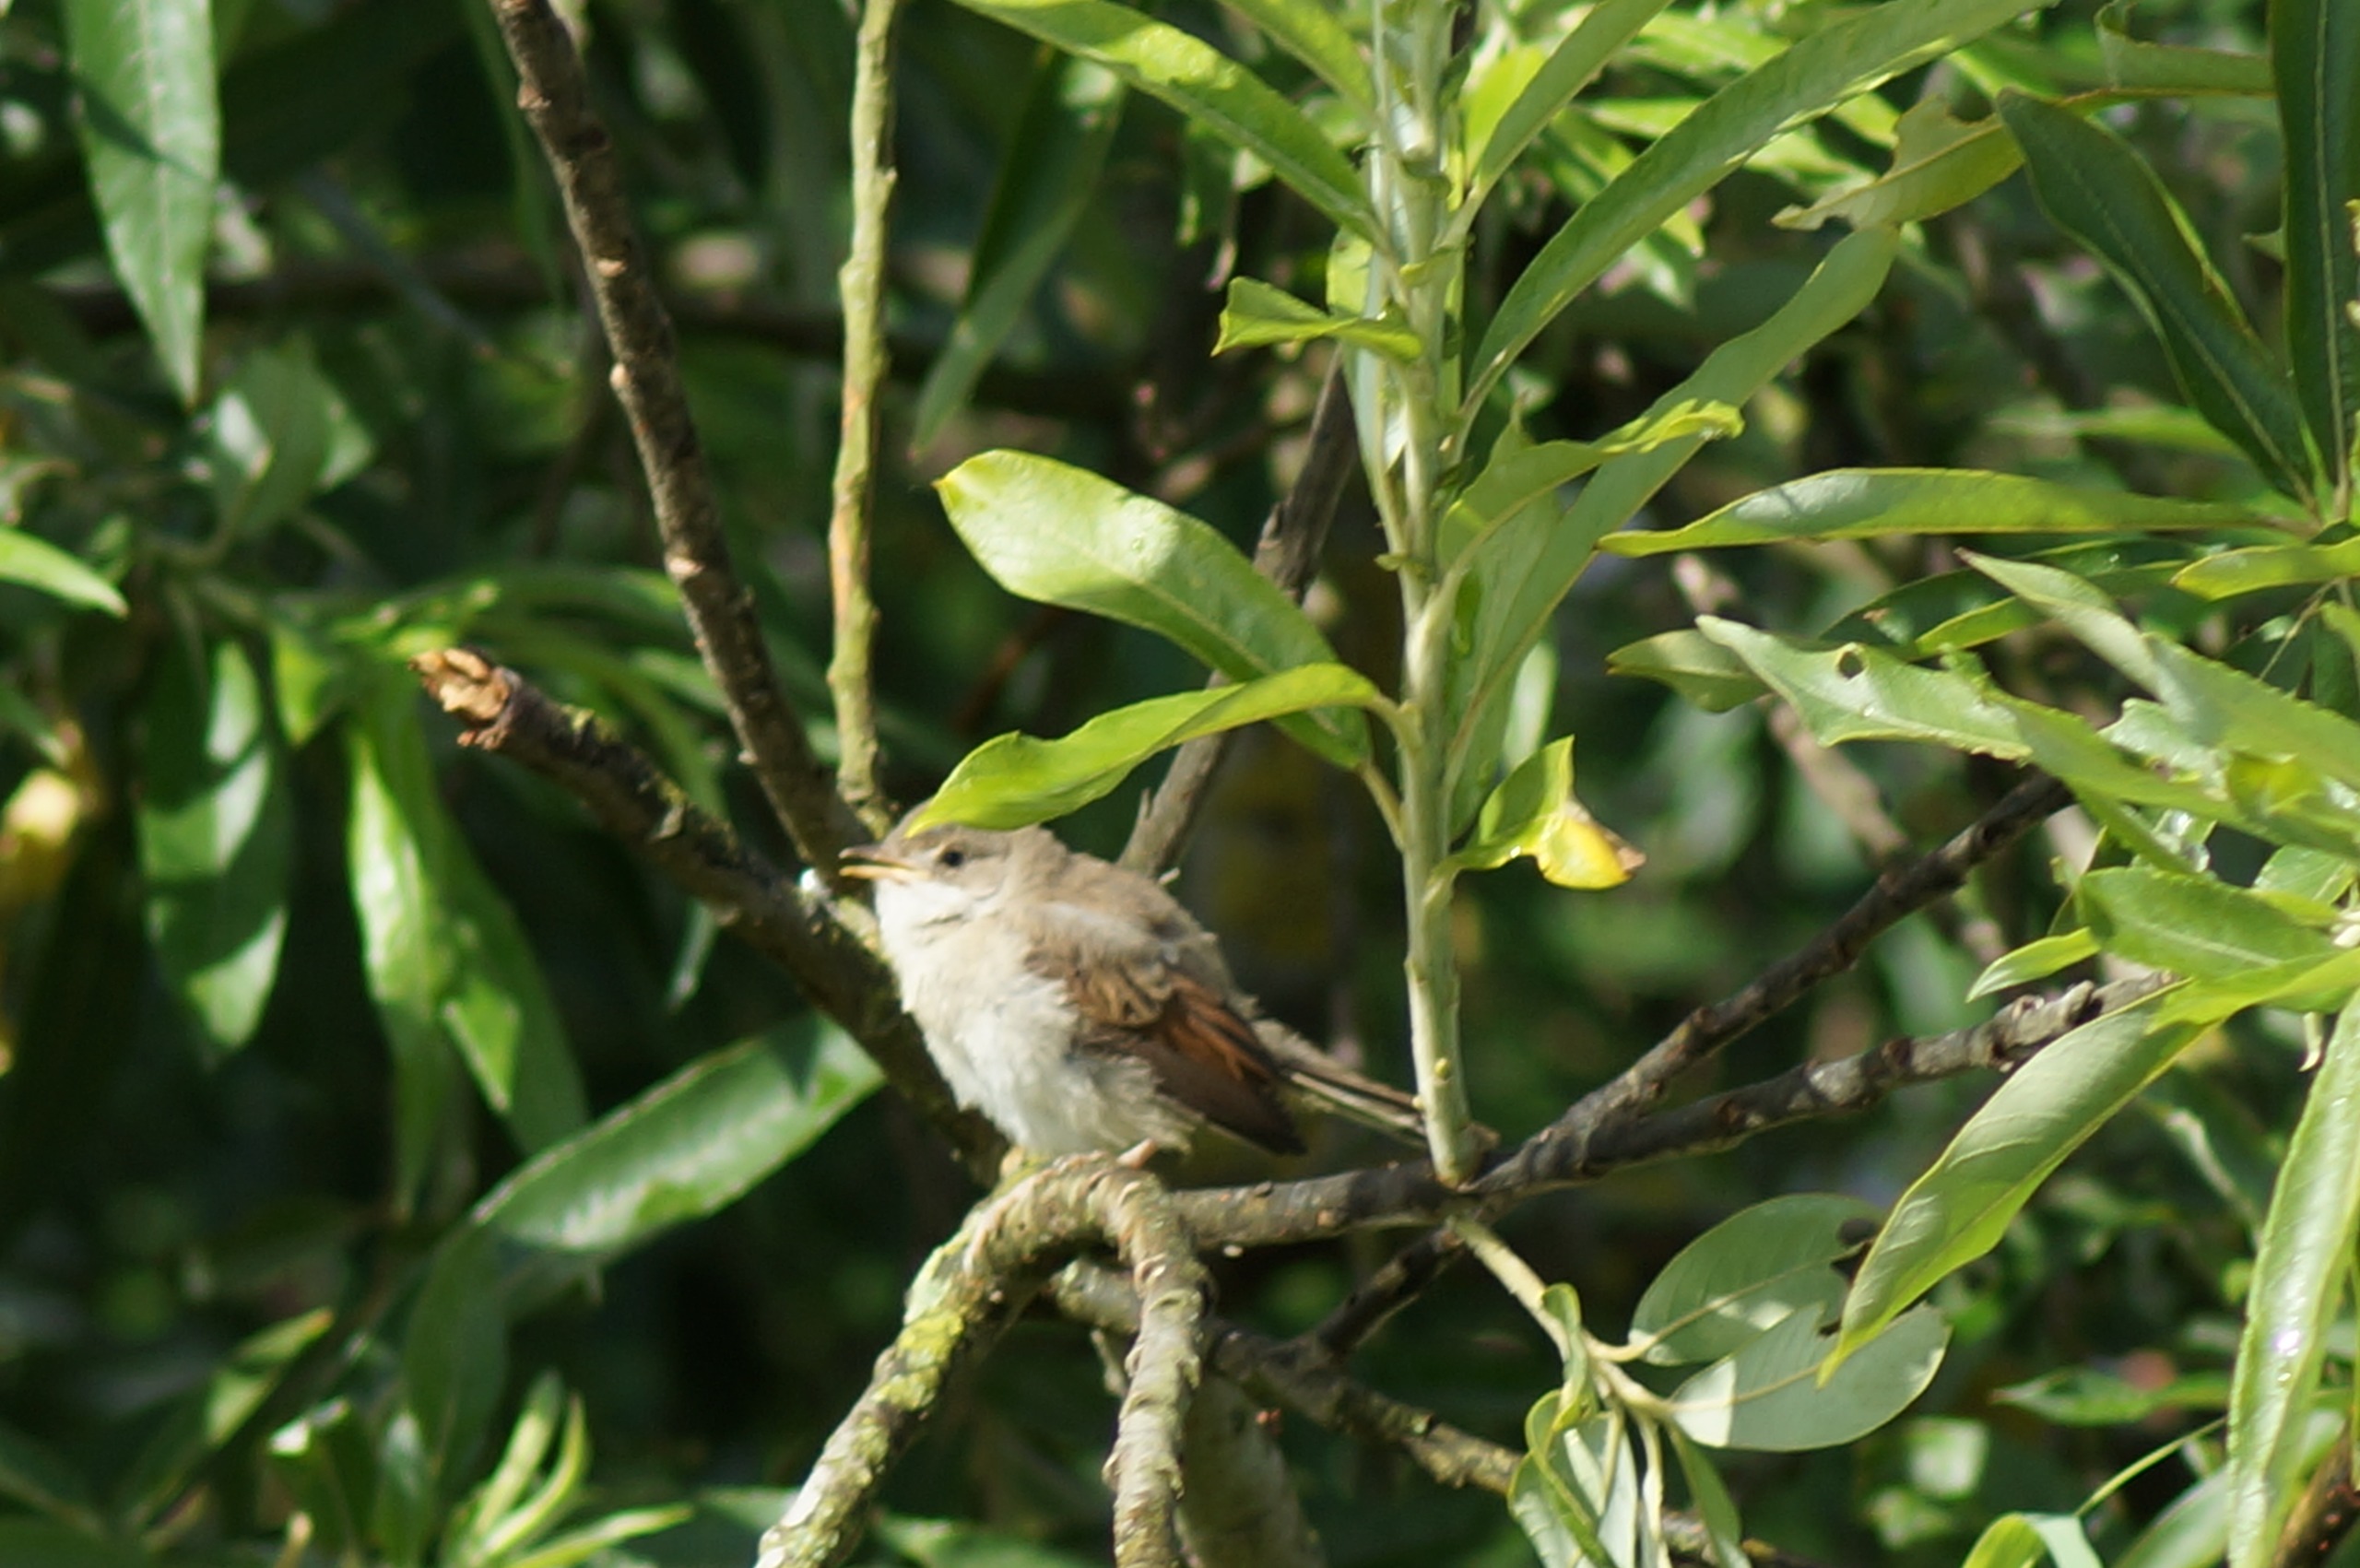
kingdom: Animalia
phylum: Chordata
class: Aves
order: Passeriformes
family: Sylviidae
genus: Sylvia
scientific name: Sylvia communis
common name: Tornsanger
